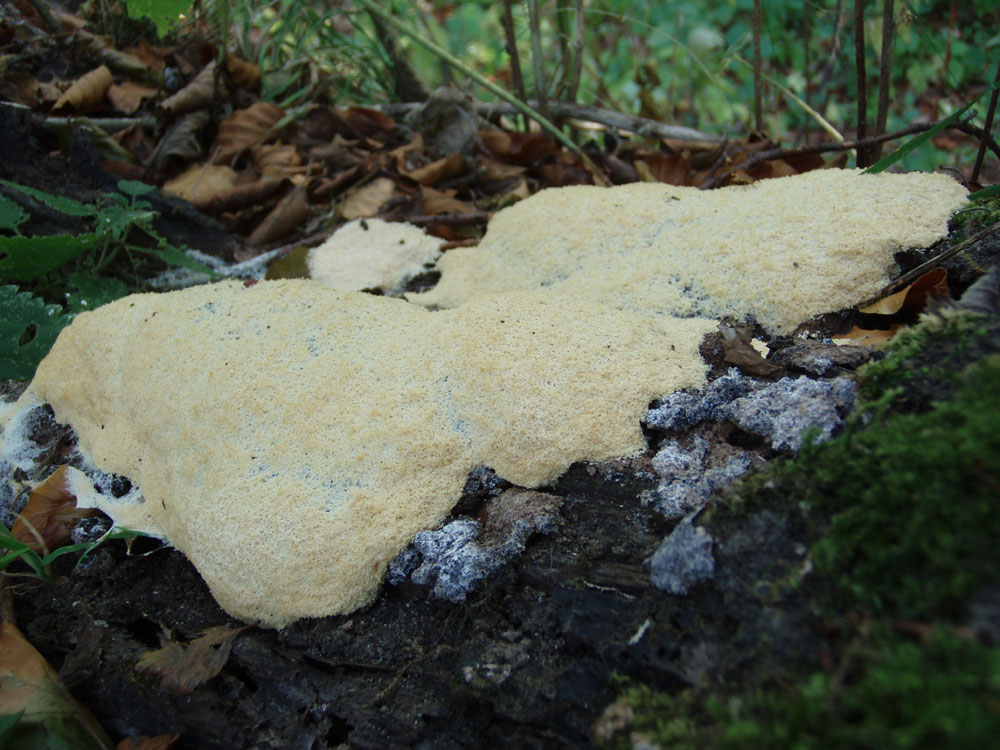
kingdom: Protozoa
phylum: Mycetozoa
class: Myxomycetes
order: Physarales
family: Physaraceae
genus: Fuligo
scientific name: Fuligo septica
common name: gul troldsmør
